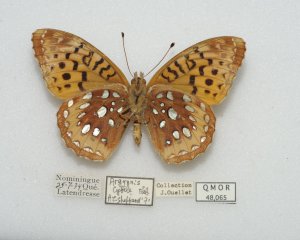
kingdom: Animalia
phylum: Arthropoda
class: Insecta
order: Lepidoptera
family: Nymphalidae
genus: Speyeria
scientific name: Speyeria cybele
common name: Great Spangled Fritillary
